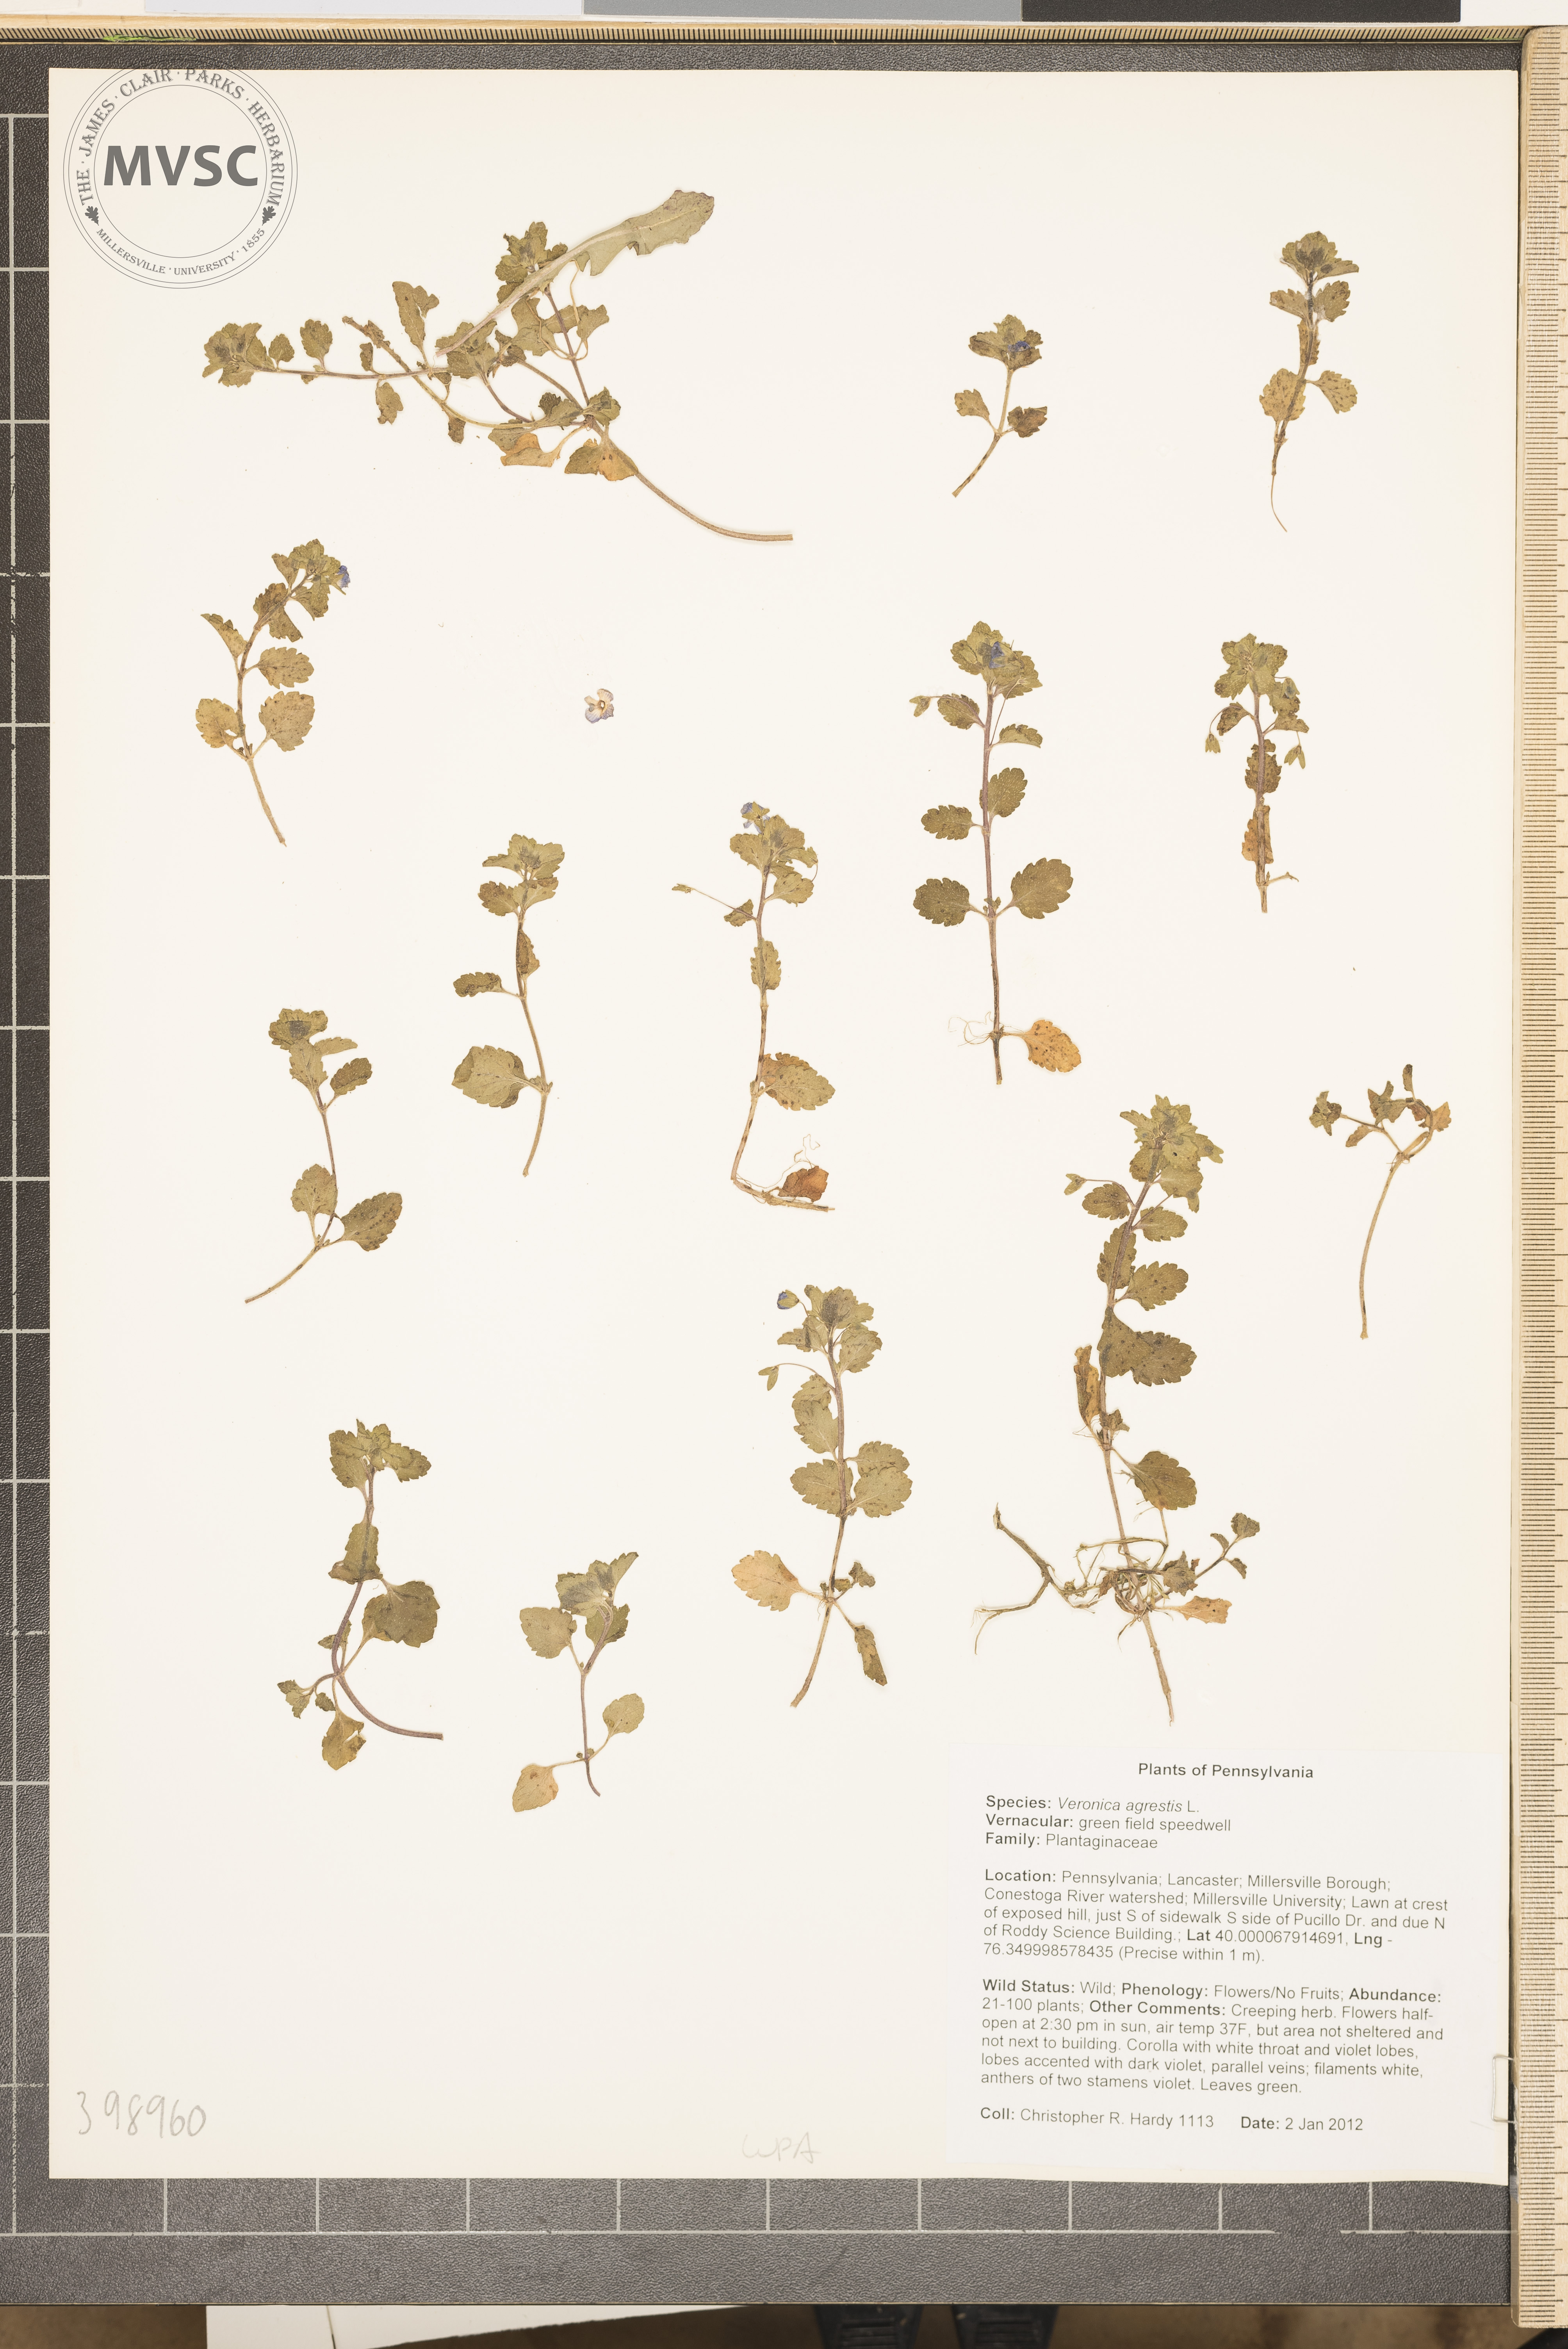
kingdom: Plantae
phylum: Tracheophyta
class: Magnoliopsida
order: Lamiales
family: Plantaginaceae
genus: Veronica
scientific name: Veronica agrestis
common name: Field speedwell
